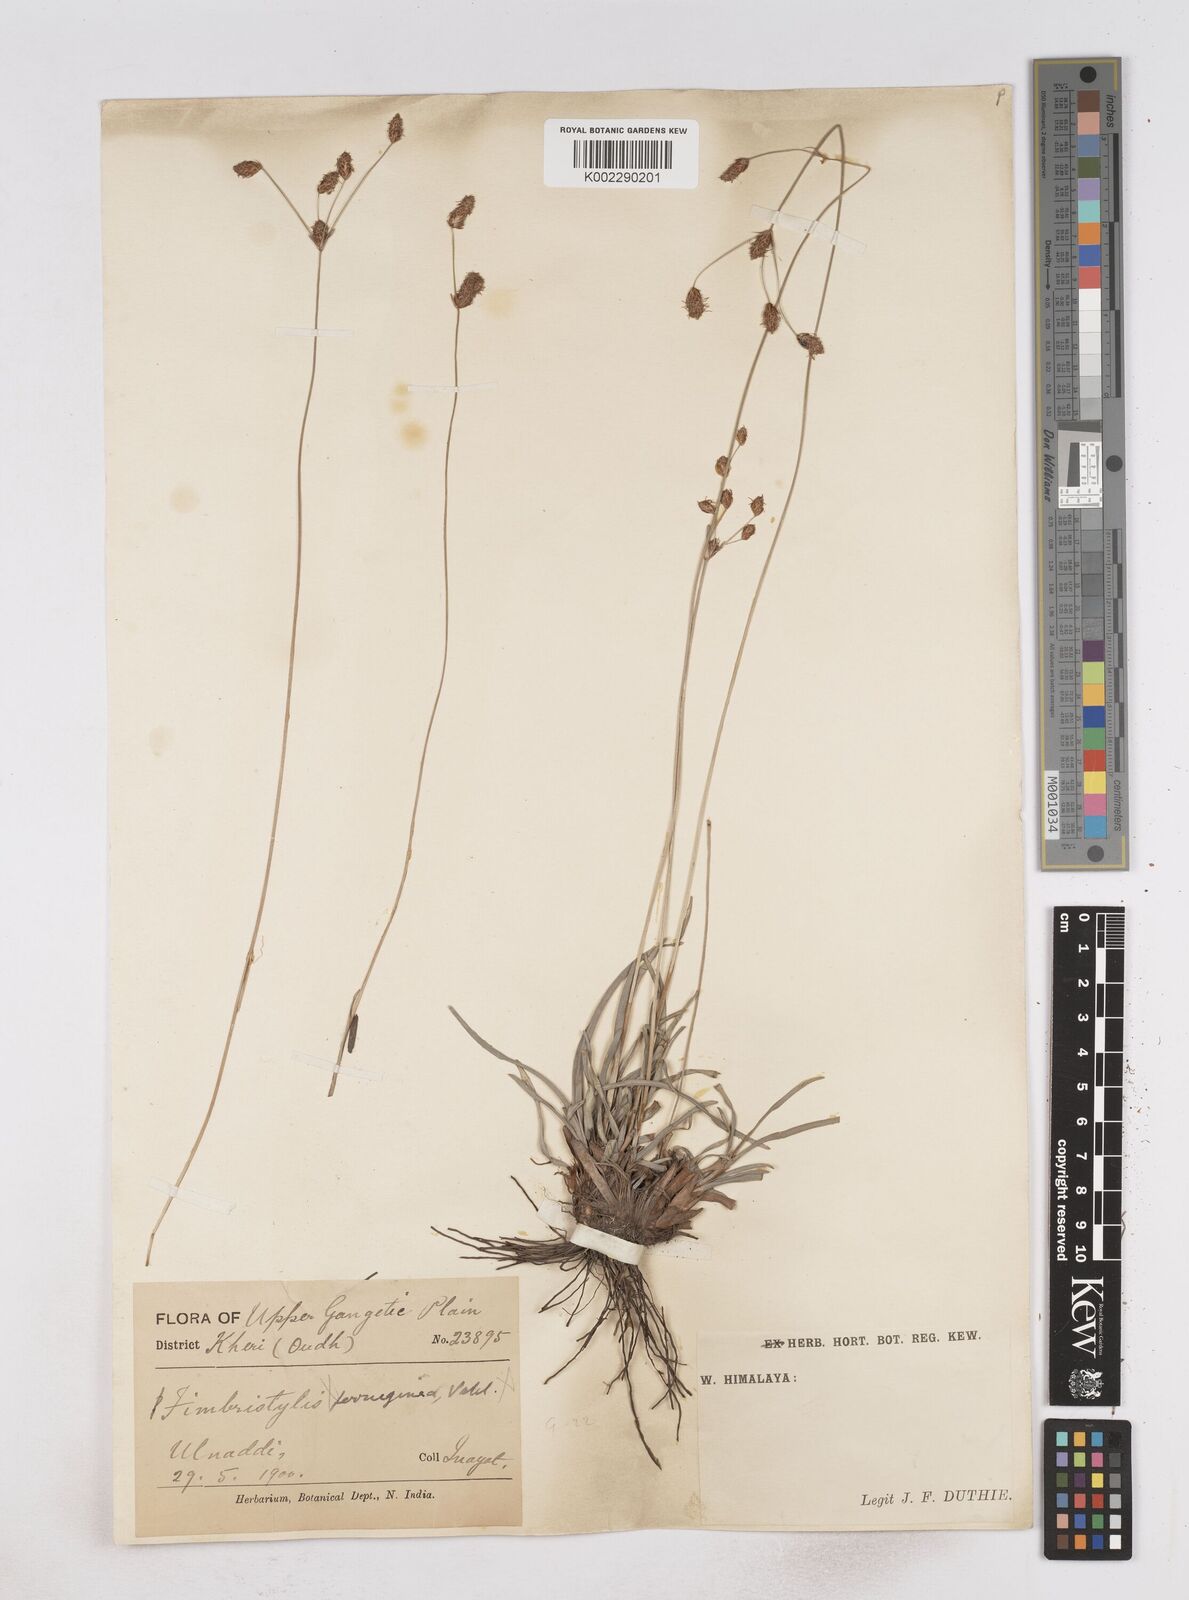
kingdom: Plantae
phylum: Tracheophyta
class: Liliopsida
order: Poales
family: Cyperaceae
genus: Fimbristylis
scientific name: Fimbristylis
